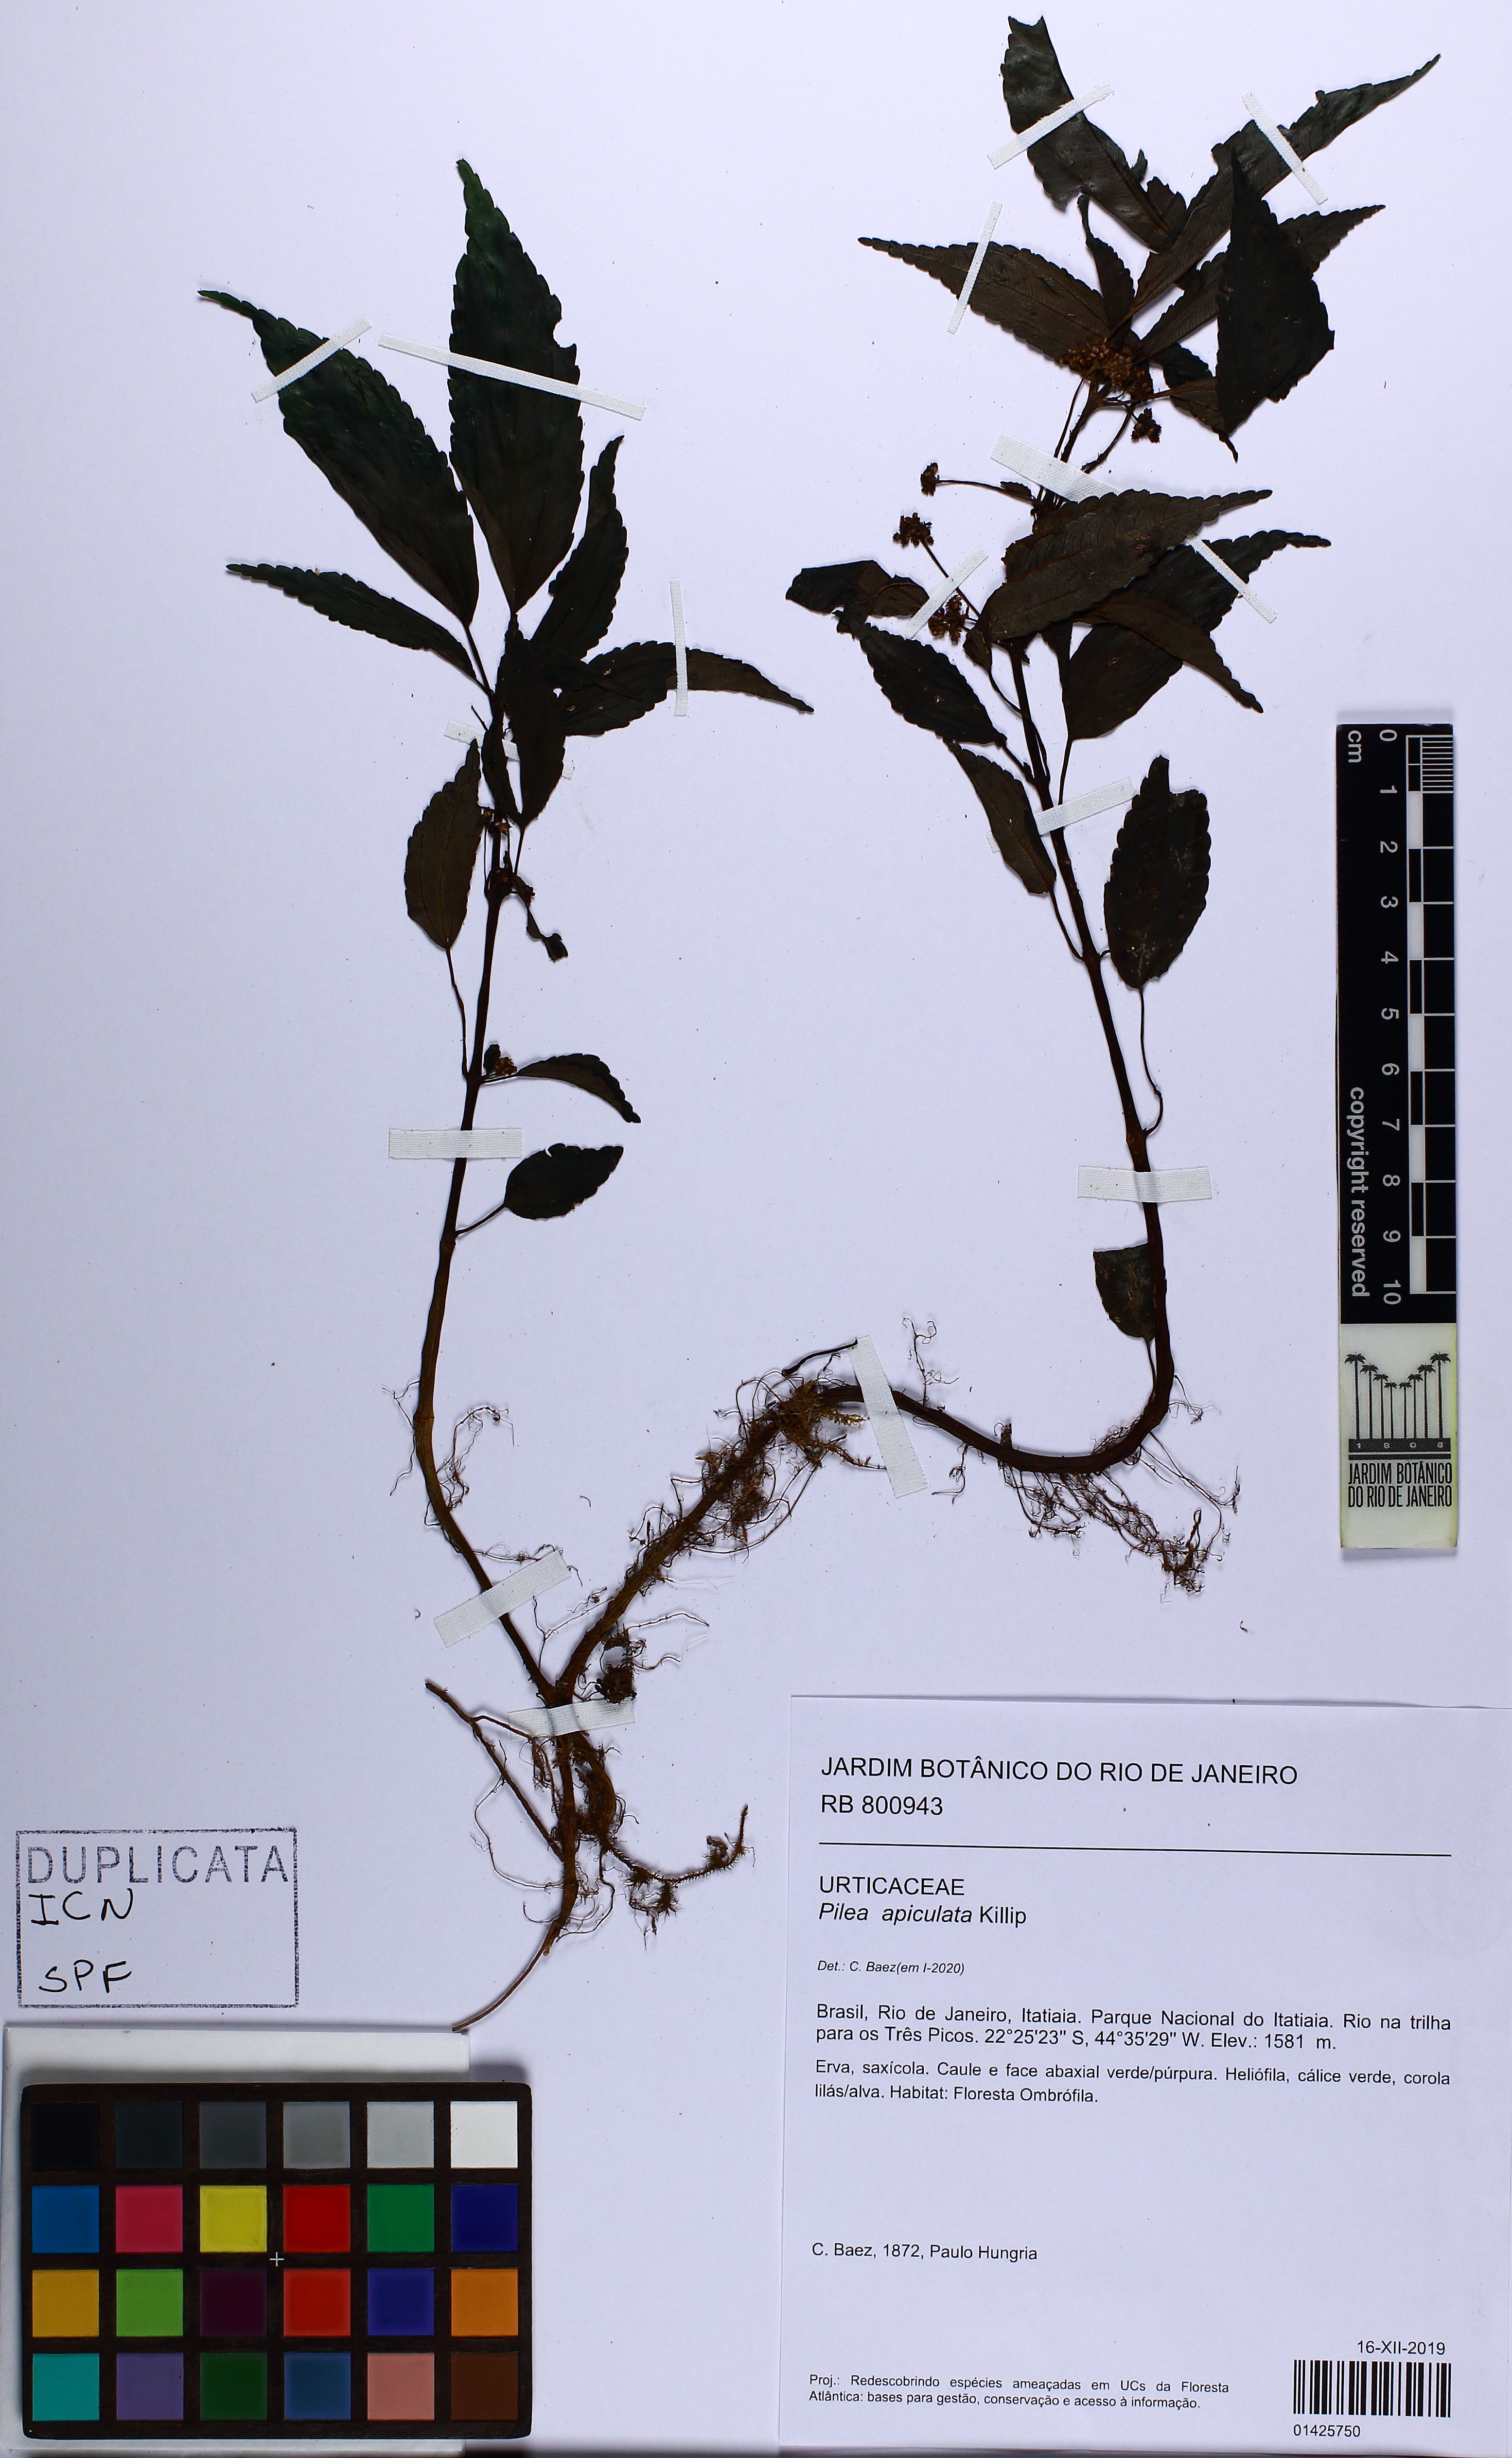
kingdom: Plantae
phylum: Tracheophyta
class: Magnoliopsida
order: Rosales
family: Urticaceae
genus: Pilea
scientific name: Pilea apiculata
